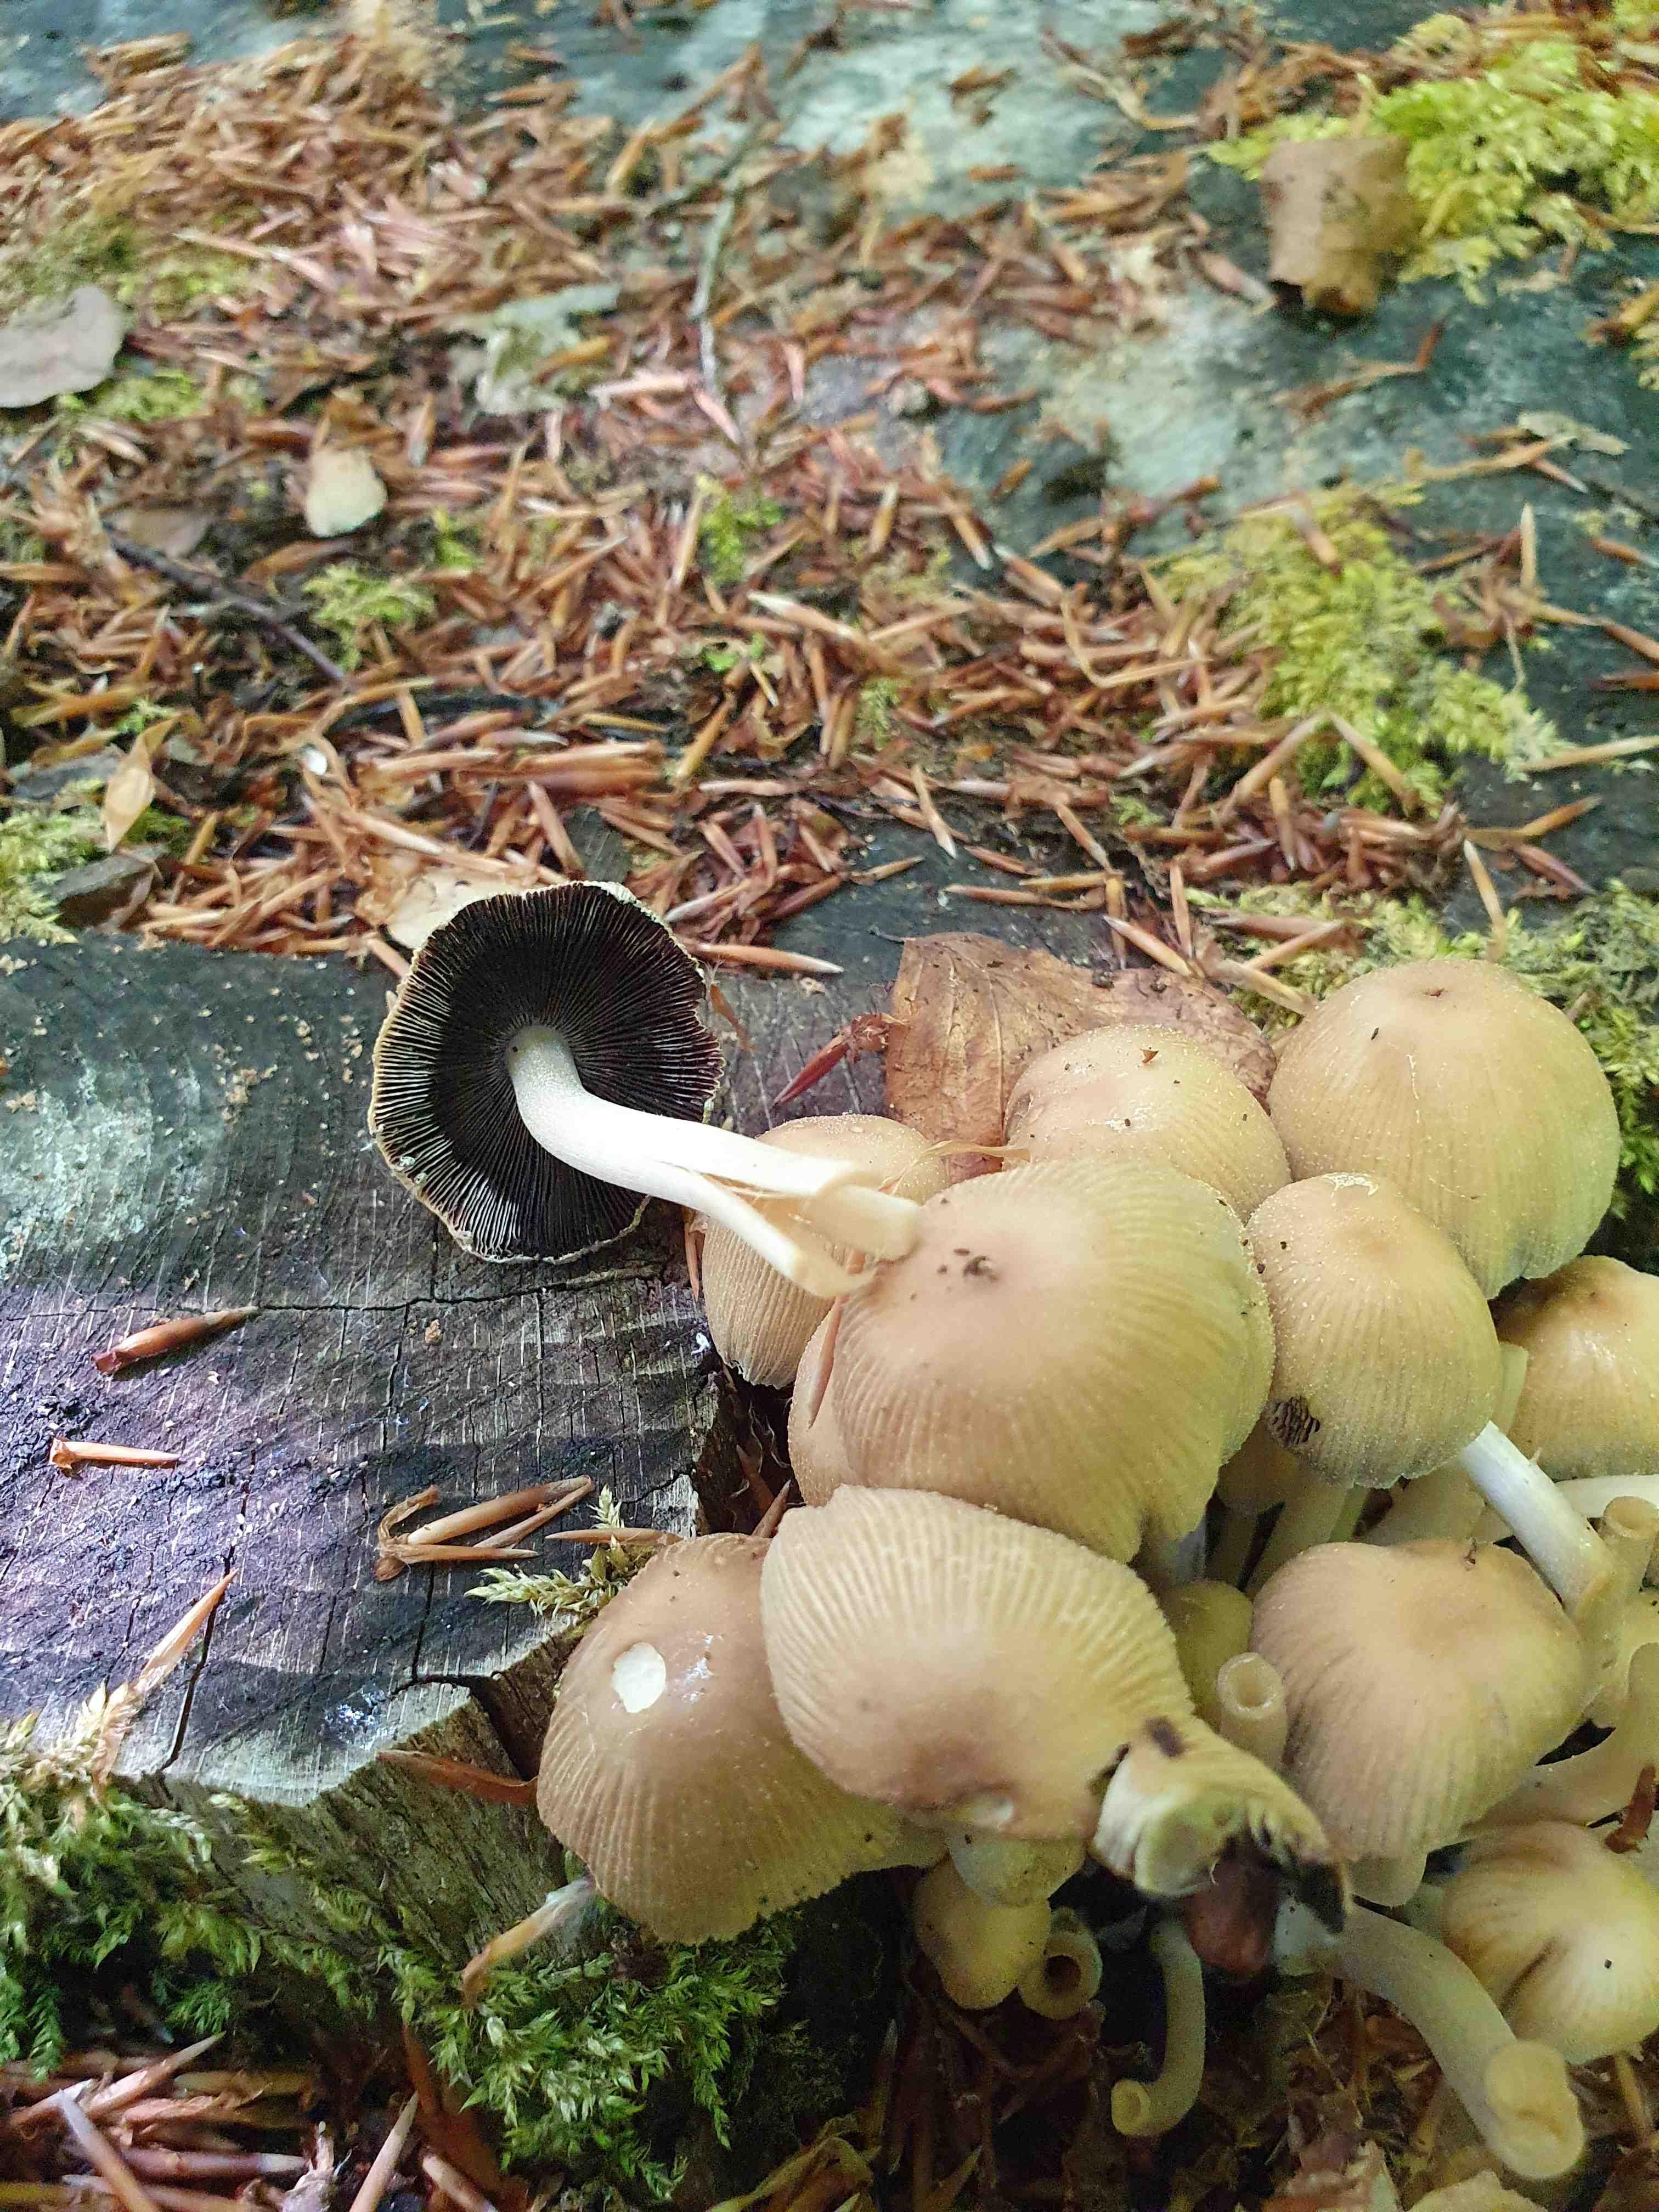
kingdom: Fungi
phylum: Basidiomycota
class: Agaricomycetes
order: Agaricales
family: Psathyrellaceae
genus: Coprinellus
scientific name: Coprinellus micaceus
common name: glimmer-blækhat
